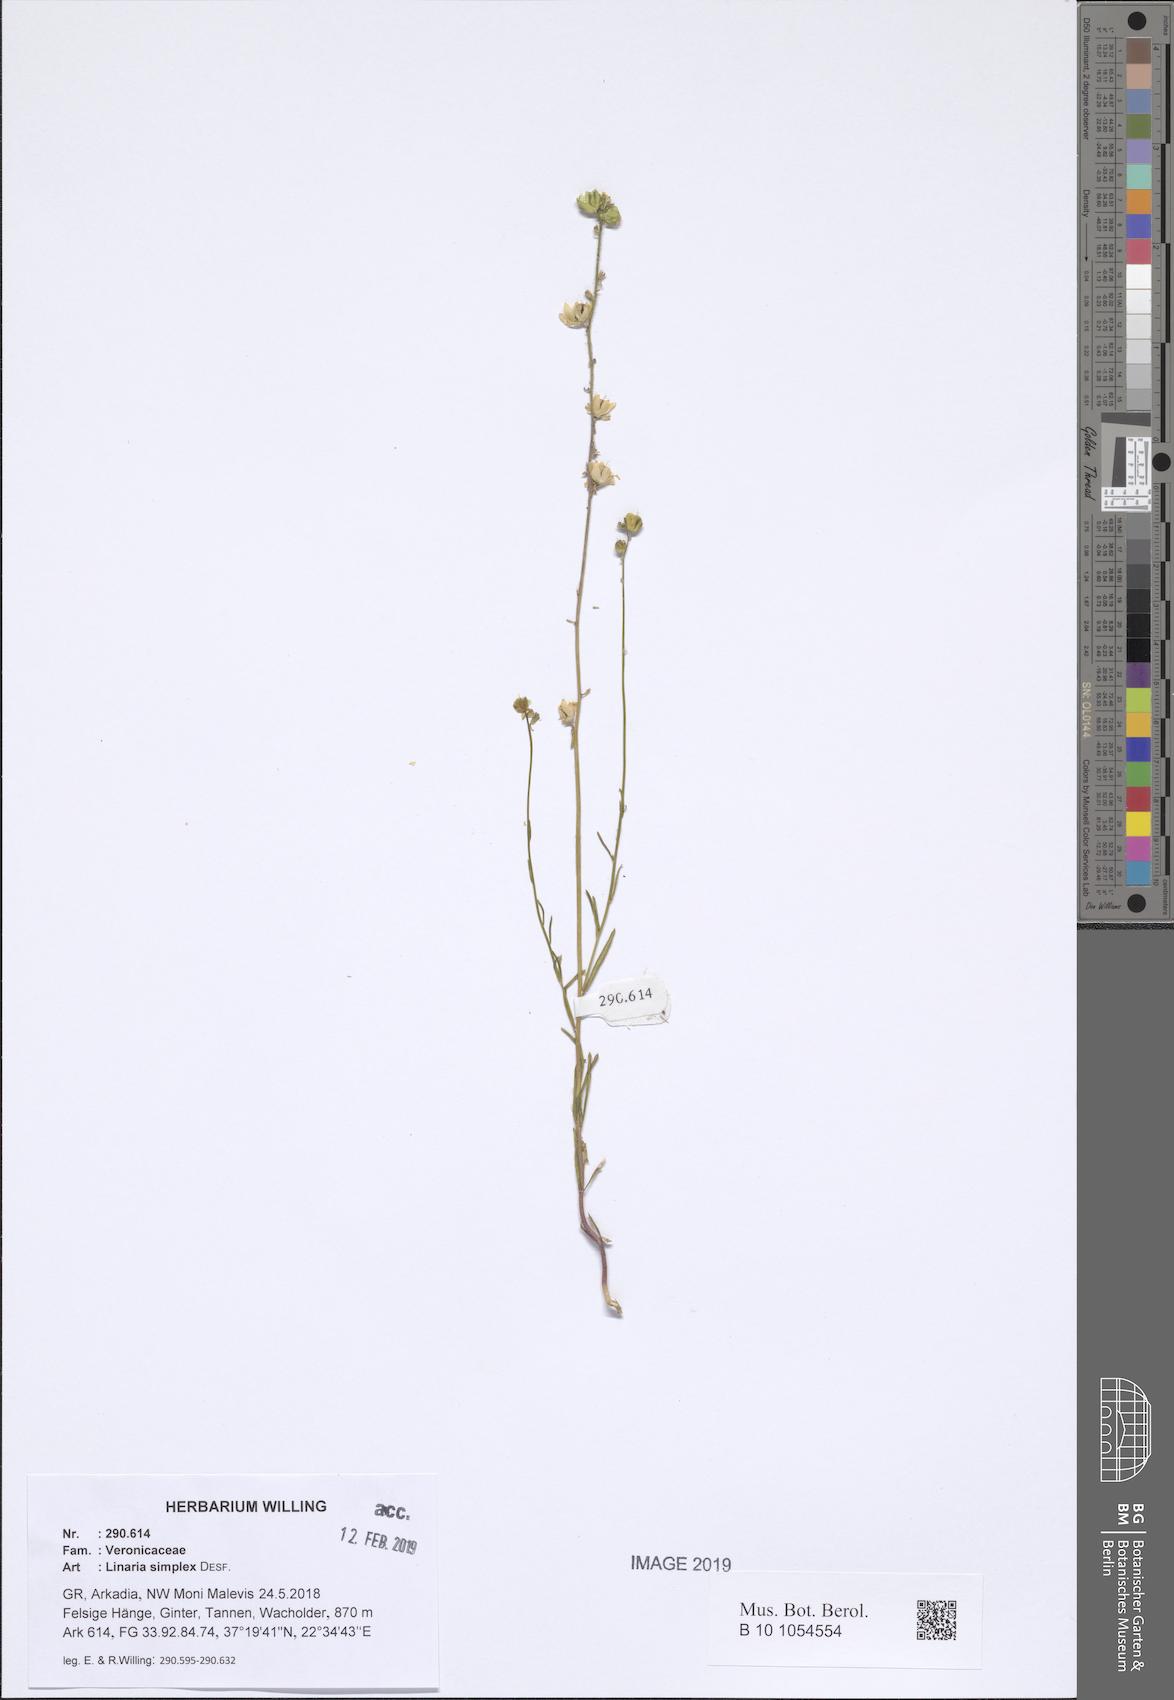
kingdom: Plantae
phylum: Tracheophyta
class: Magnoliopsida
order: Lamiales
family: Plantaginaceae
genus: Linaria
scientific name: Linaria simplex
